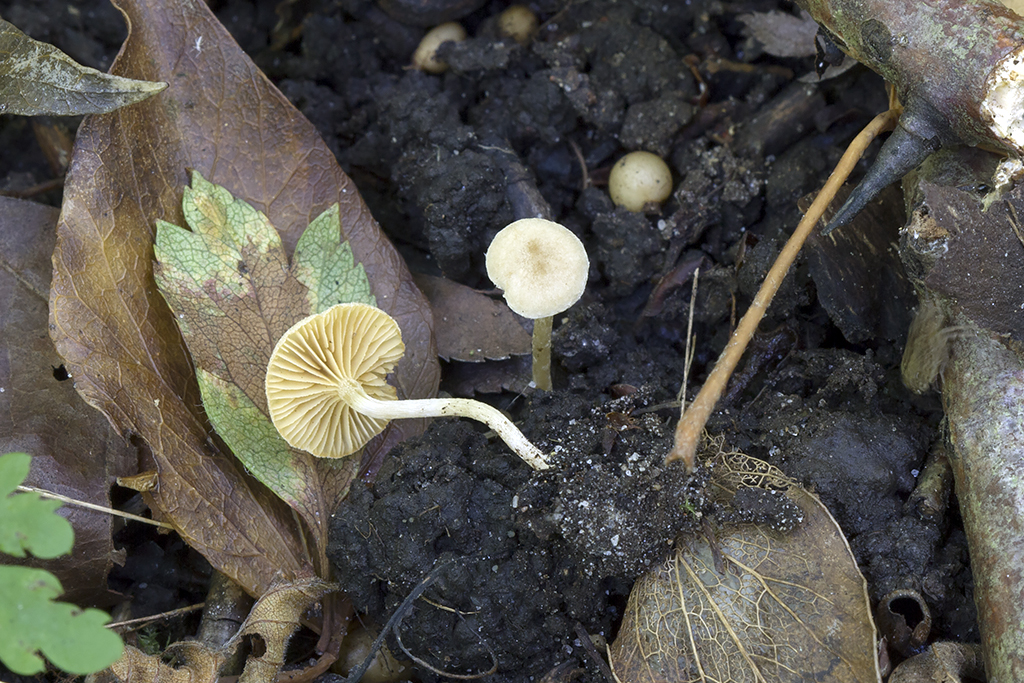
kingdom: Fungi
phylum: Basidiomycota
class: Agaricomycetes
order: Agaricales
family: Tubariaceae
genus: Tubaria
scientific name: Tubaria dispersa
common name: tjørne-fnughat
